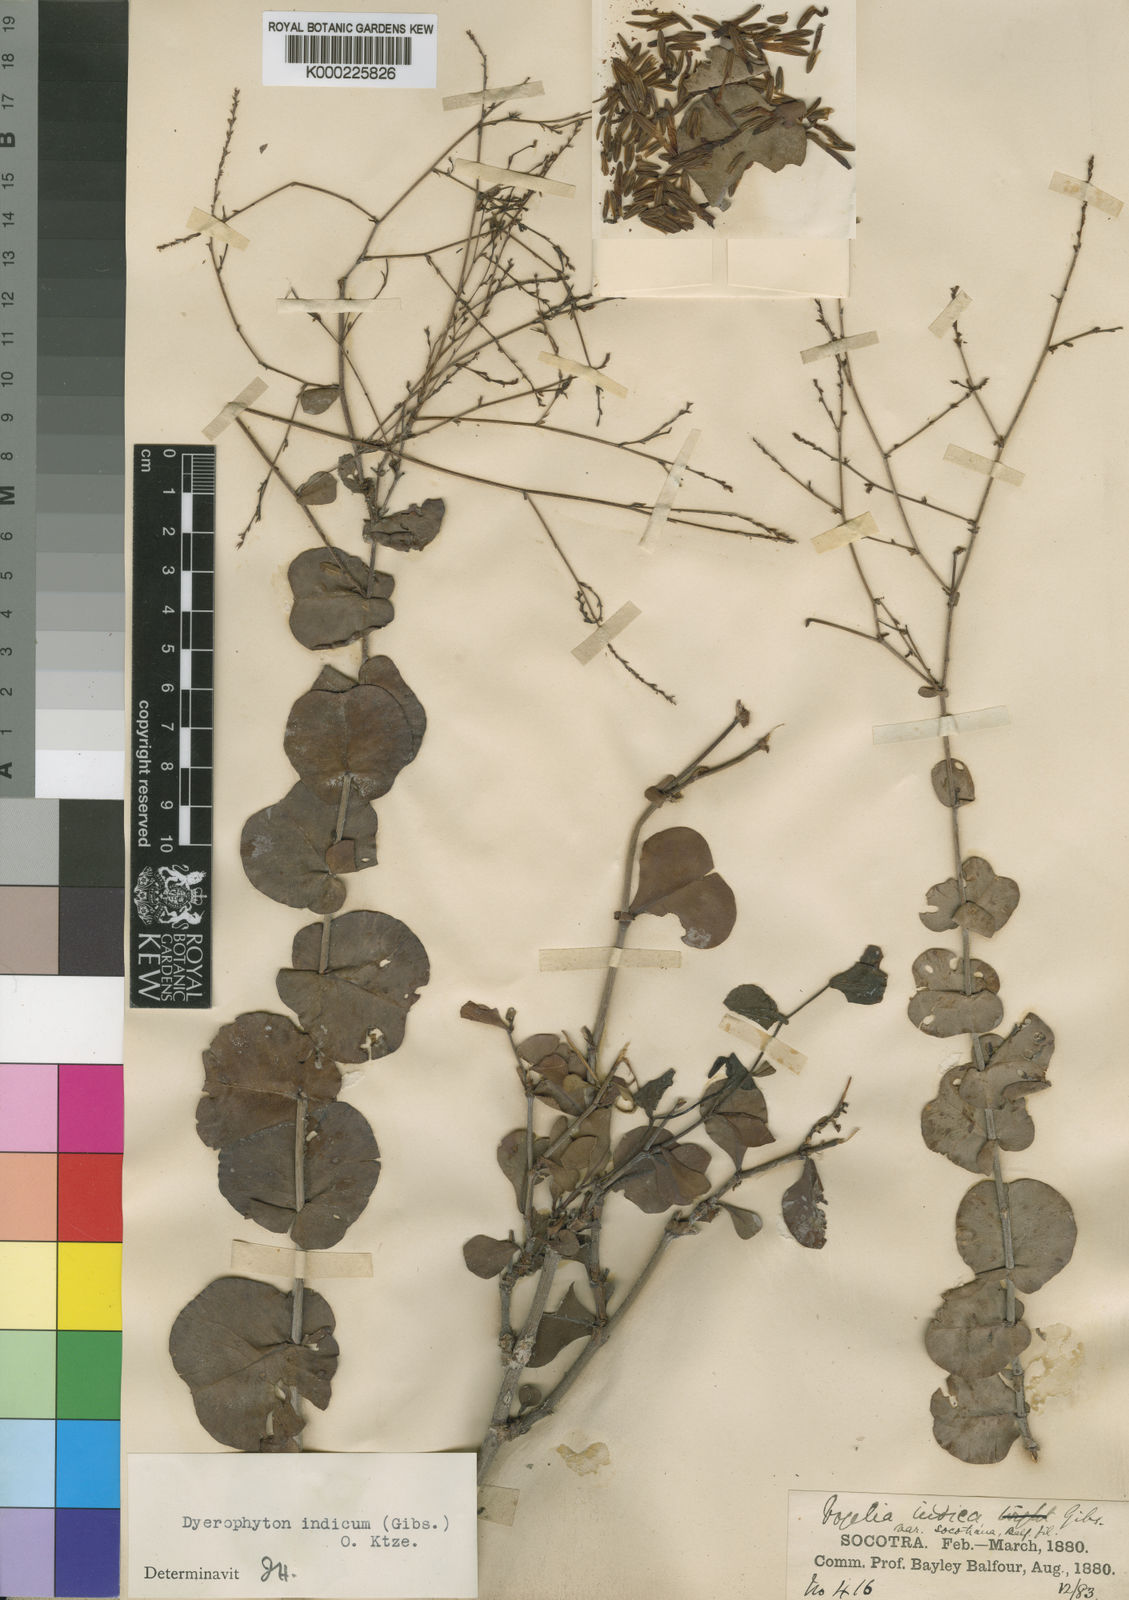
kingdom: Plantae
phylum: Tracheophyta
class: Magnoliopsida
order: Caryophyllales
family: Plumbaginaceae
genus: Dyerophytum
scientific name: Dyerophytum indicum
